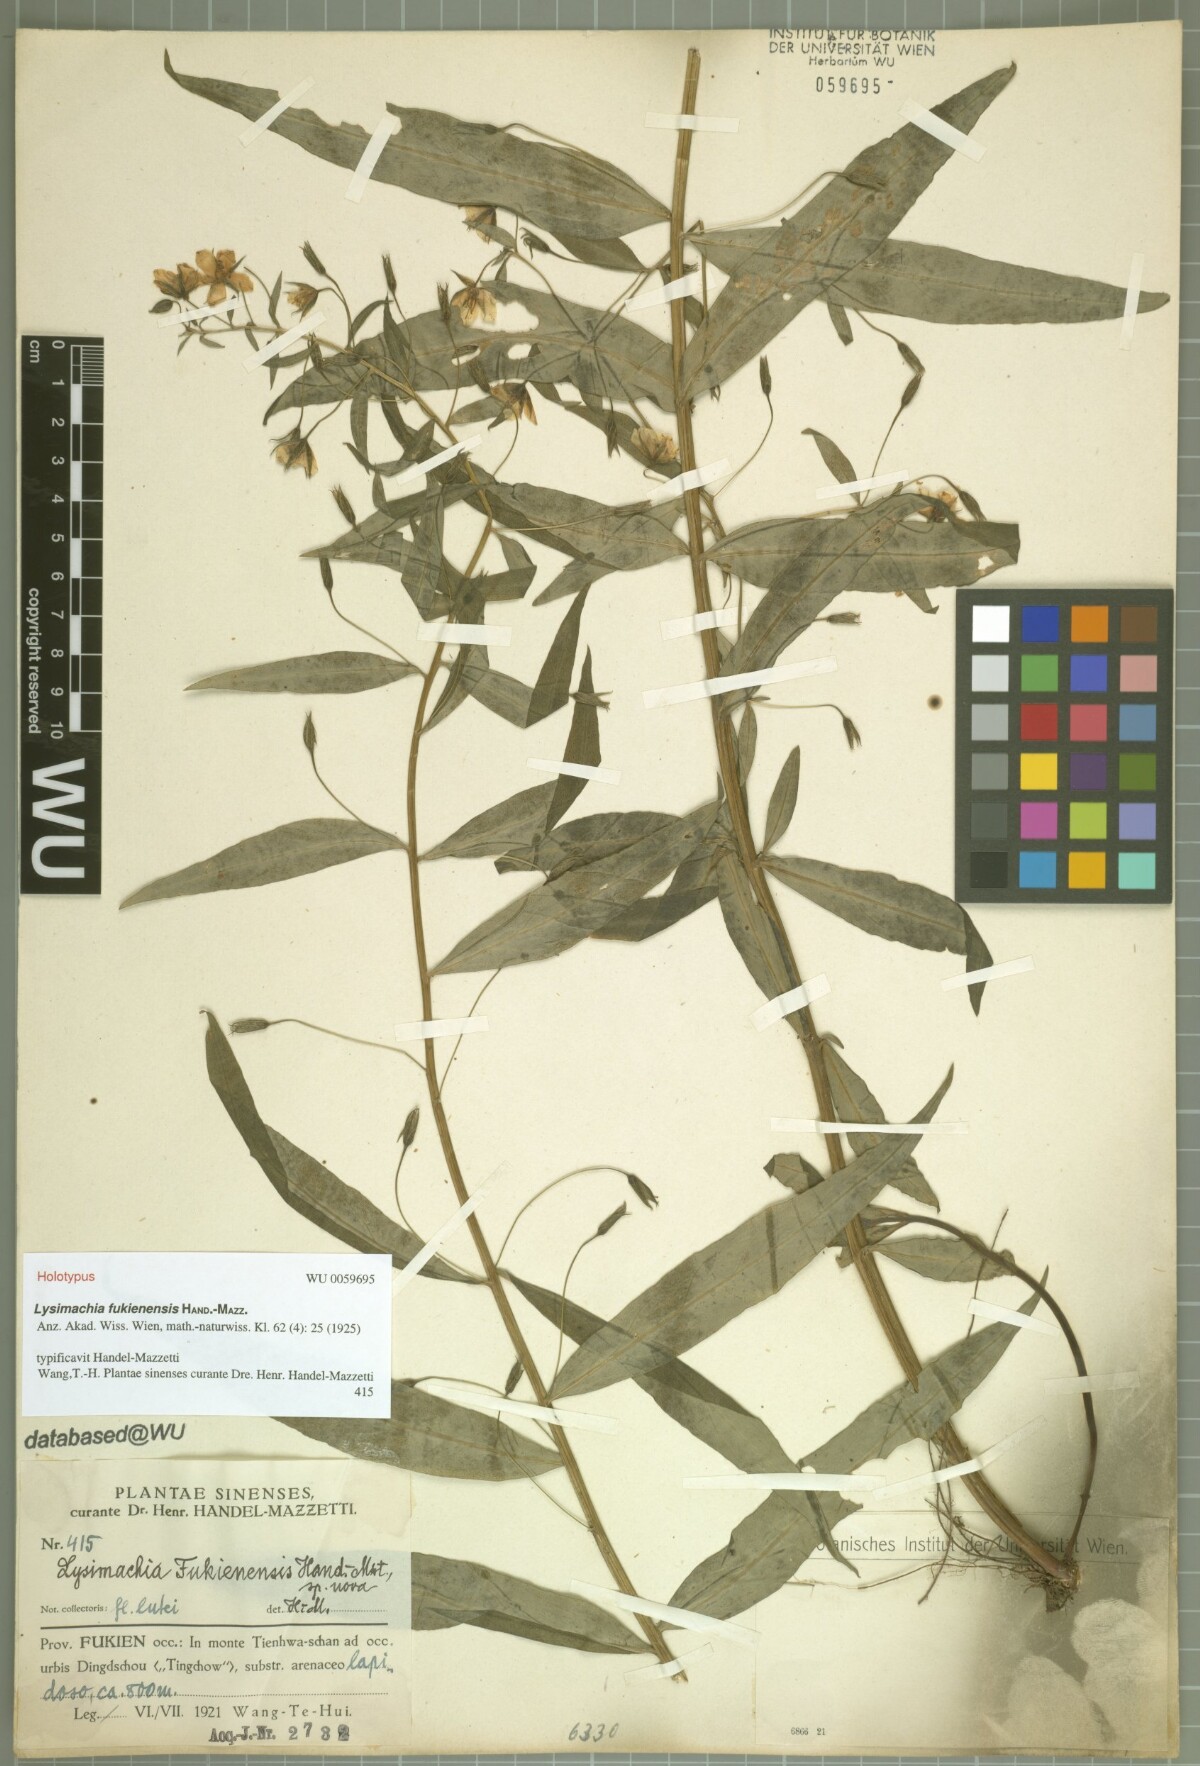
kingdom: Plantae
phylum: Tracheophyta
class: Magnoliopsida
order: Ericales
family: Primulaceae
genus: Lysimachia
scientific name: Lysimachia fukienensis
